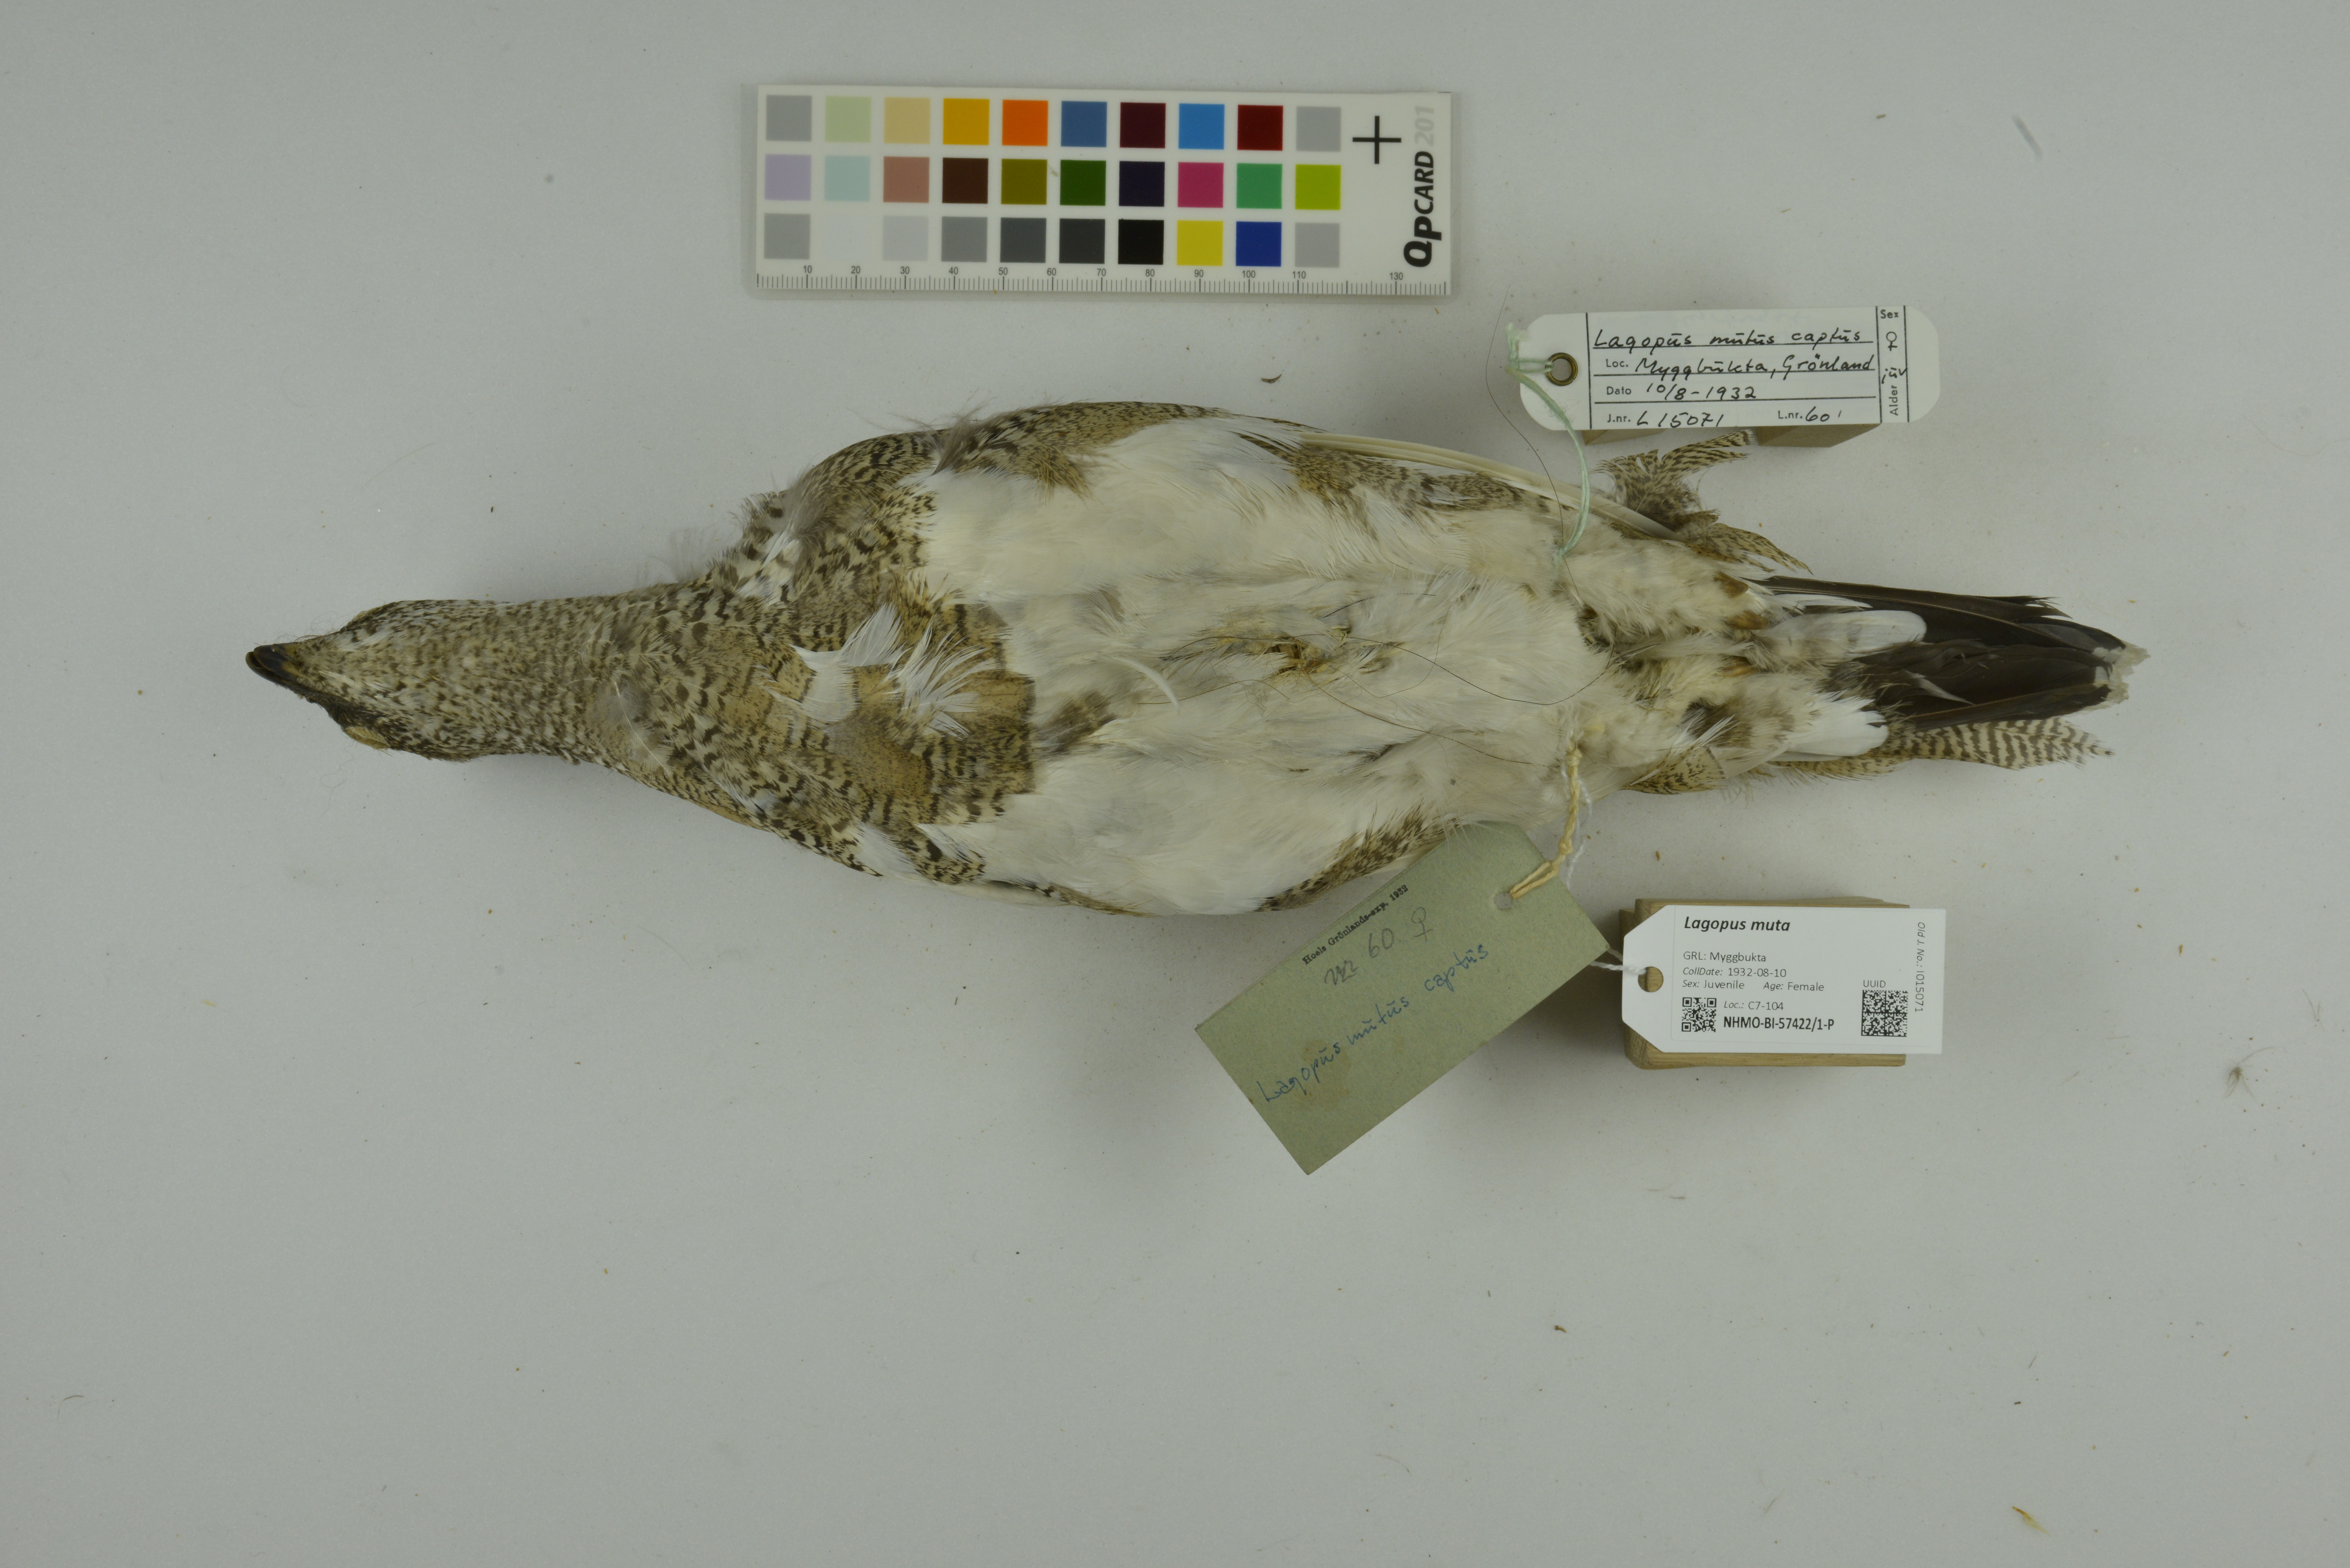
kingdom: Animalia
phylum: Chordata
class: Aves
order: Galliformes
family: Phasianidae
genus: Lagopus
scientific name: Lagopus muta
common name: Rock ptarmigan
